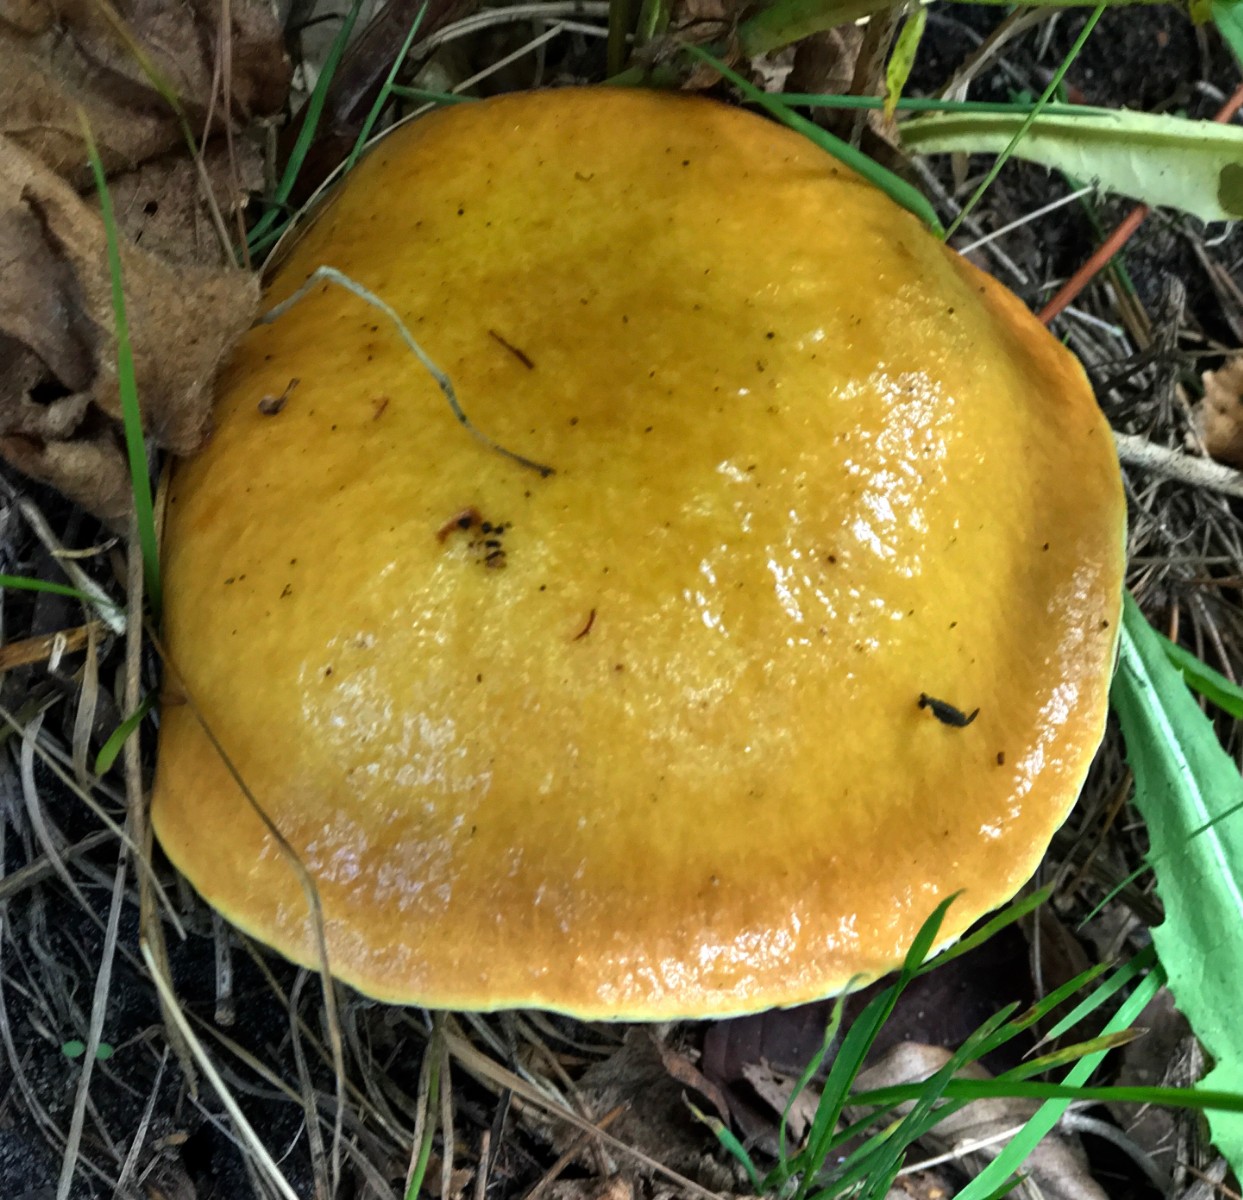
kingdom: Fungi
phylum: Basidiomycota
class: Agaricomycetes
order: Boletales
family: Suillaceae
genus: Suillus
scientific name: Suillus grevillei
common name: lærke-slimrørhat
